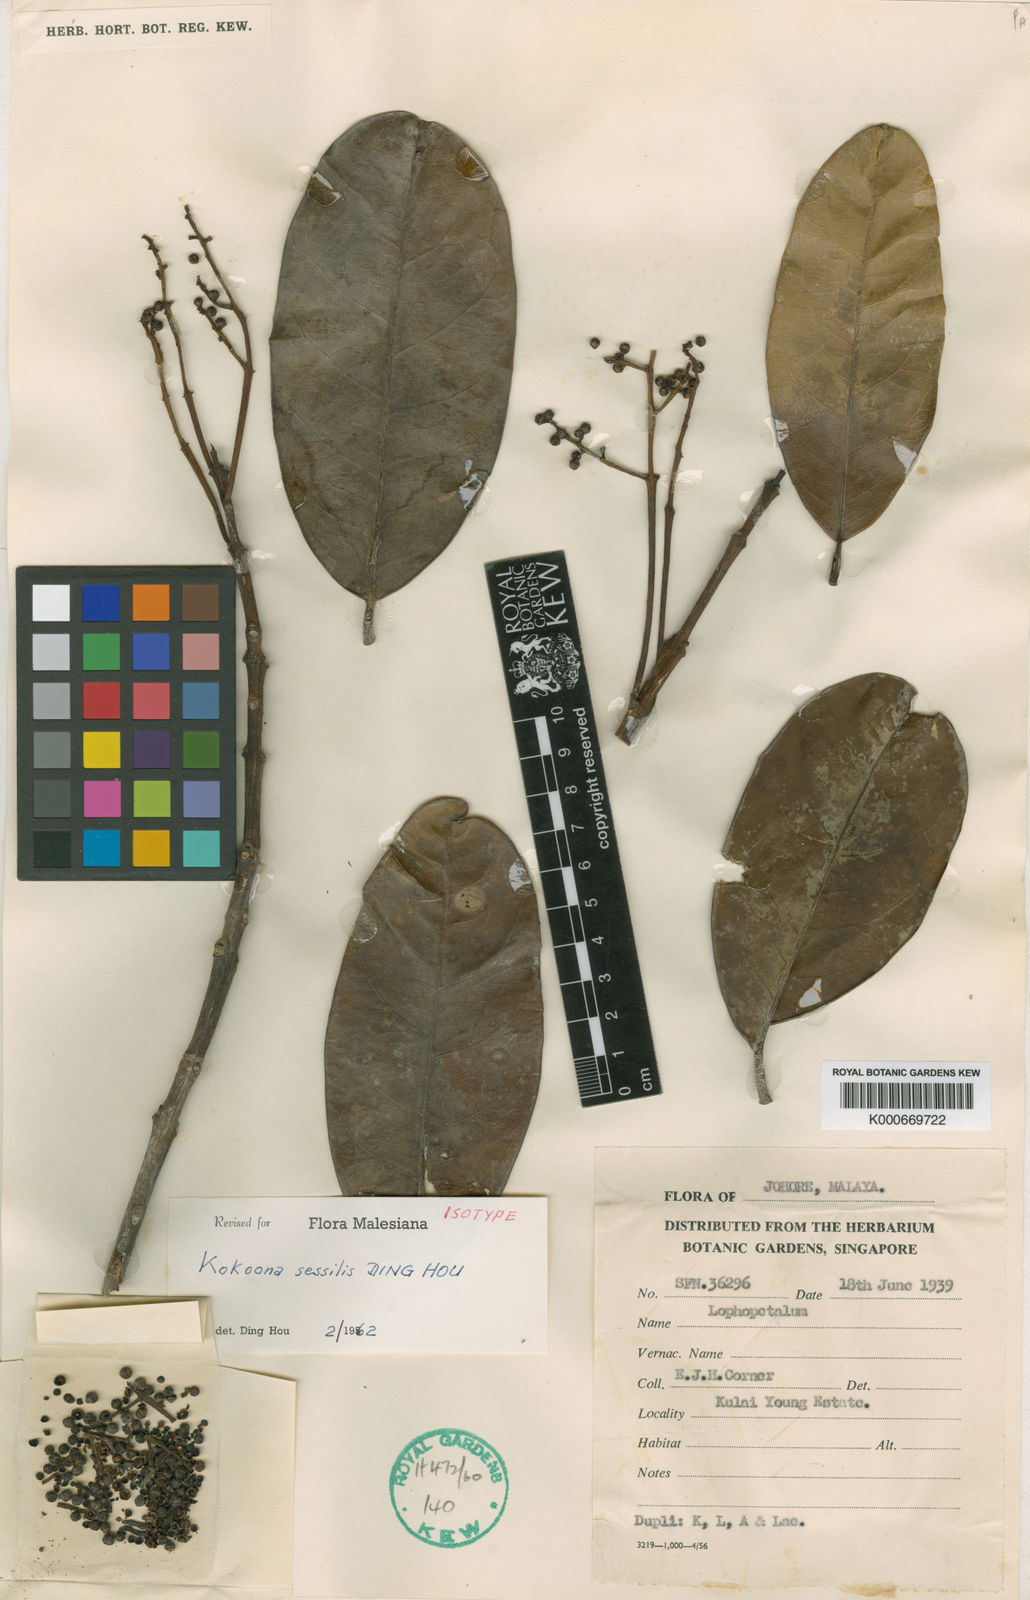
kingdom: Plantae
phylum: Tracheophyta
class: Magnoliopsida
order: Celastrales
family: Celastraceae
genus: Kokoona
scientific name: Kokoona sessilis
